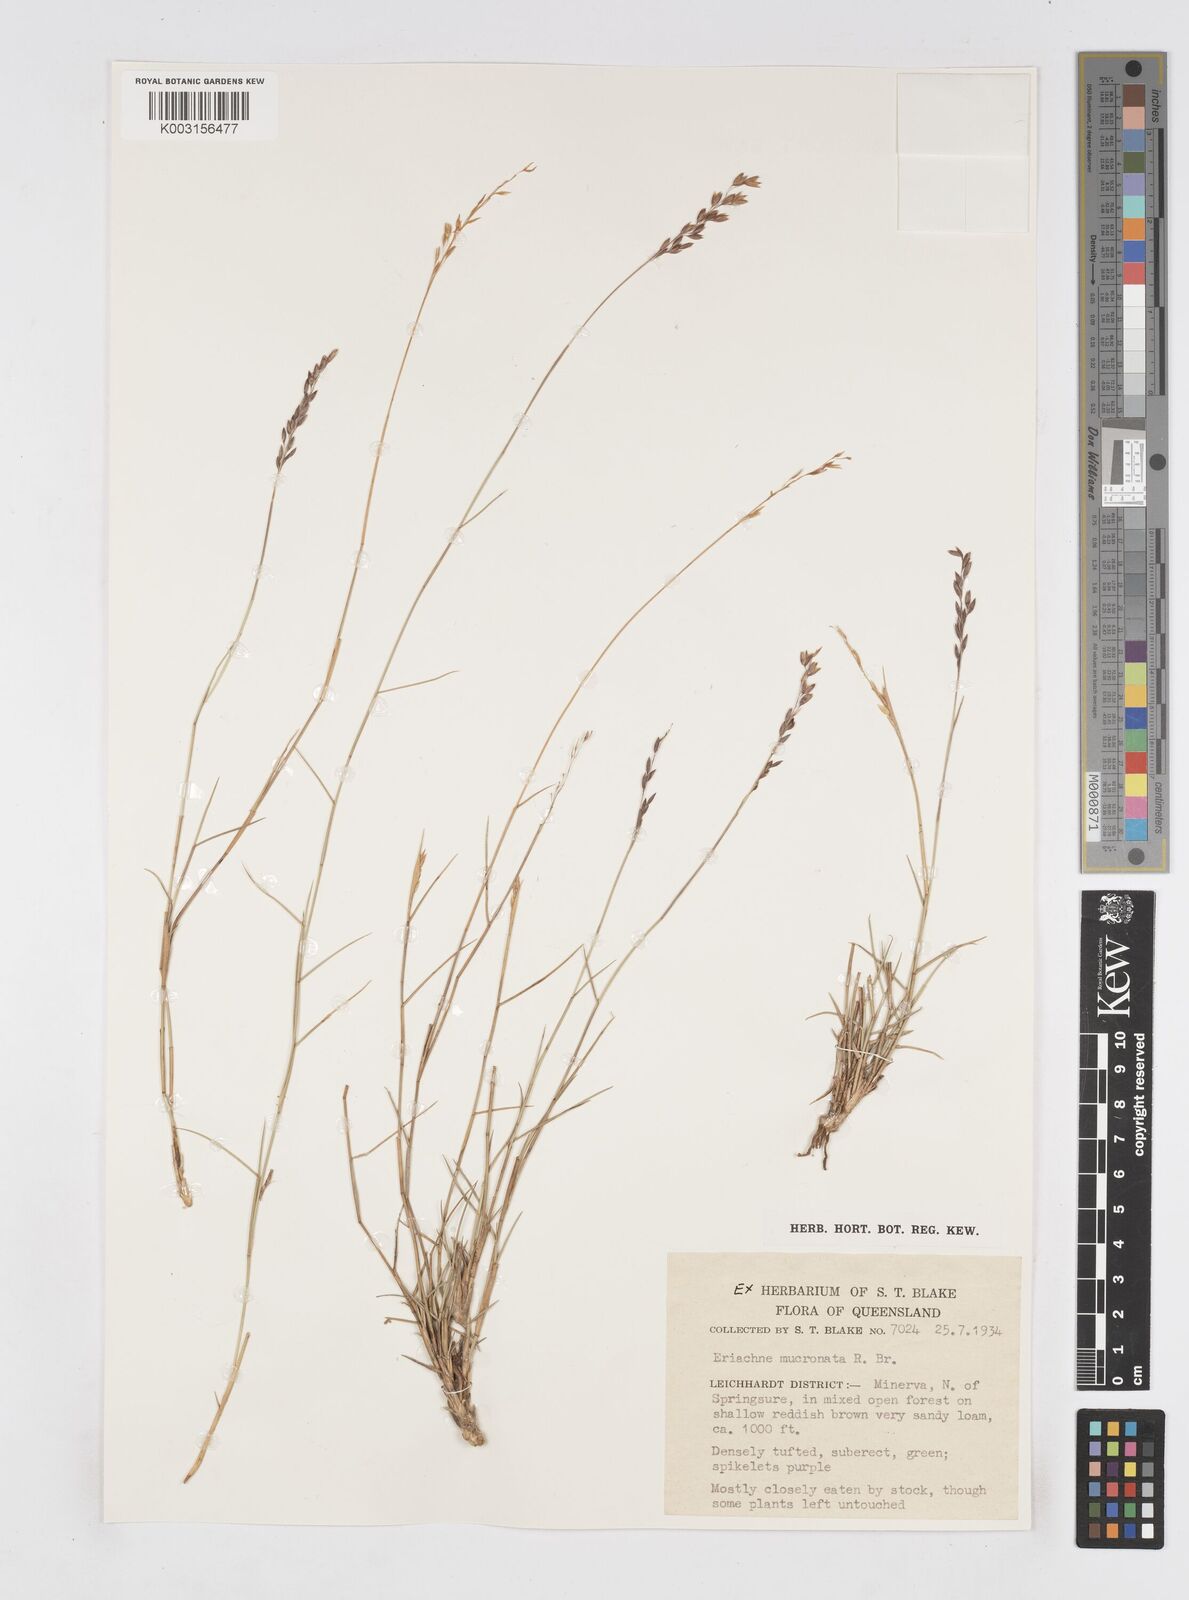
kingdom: Plantae
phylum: Tracheophyta
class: Liliopsida
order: Poales
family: Poaceae
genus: Eriachne
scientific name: Eriachne mucronata
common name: Mountain wanderrie grass
